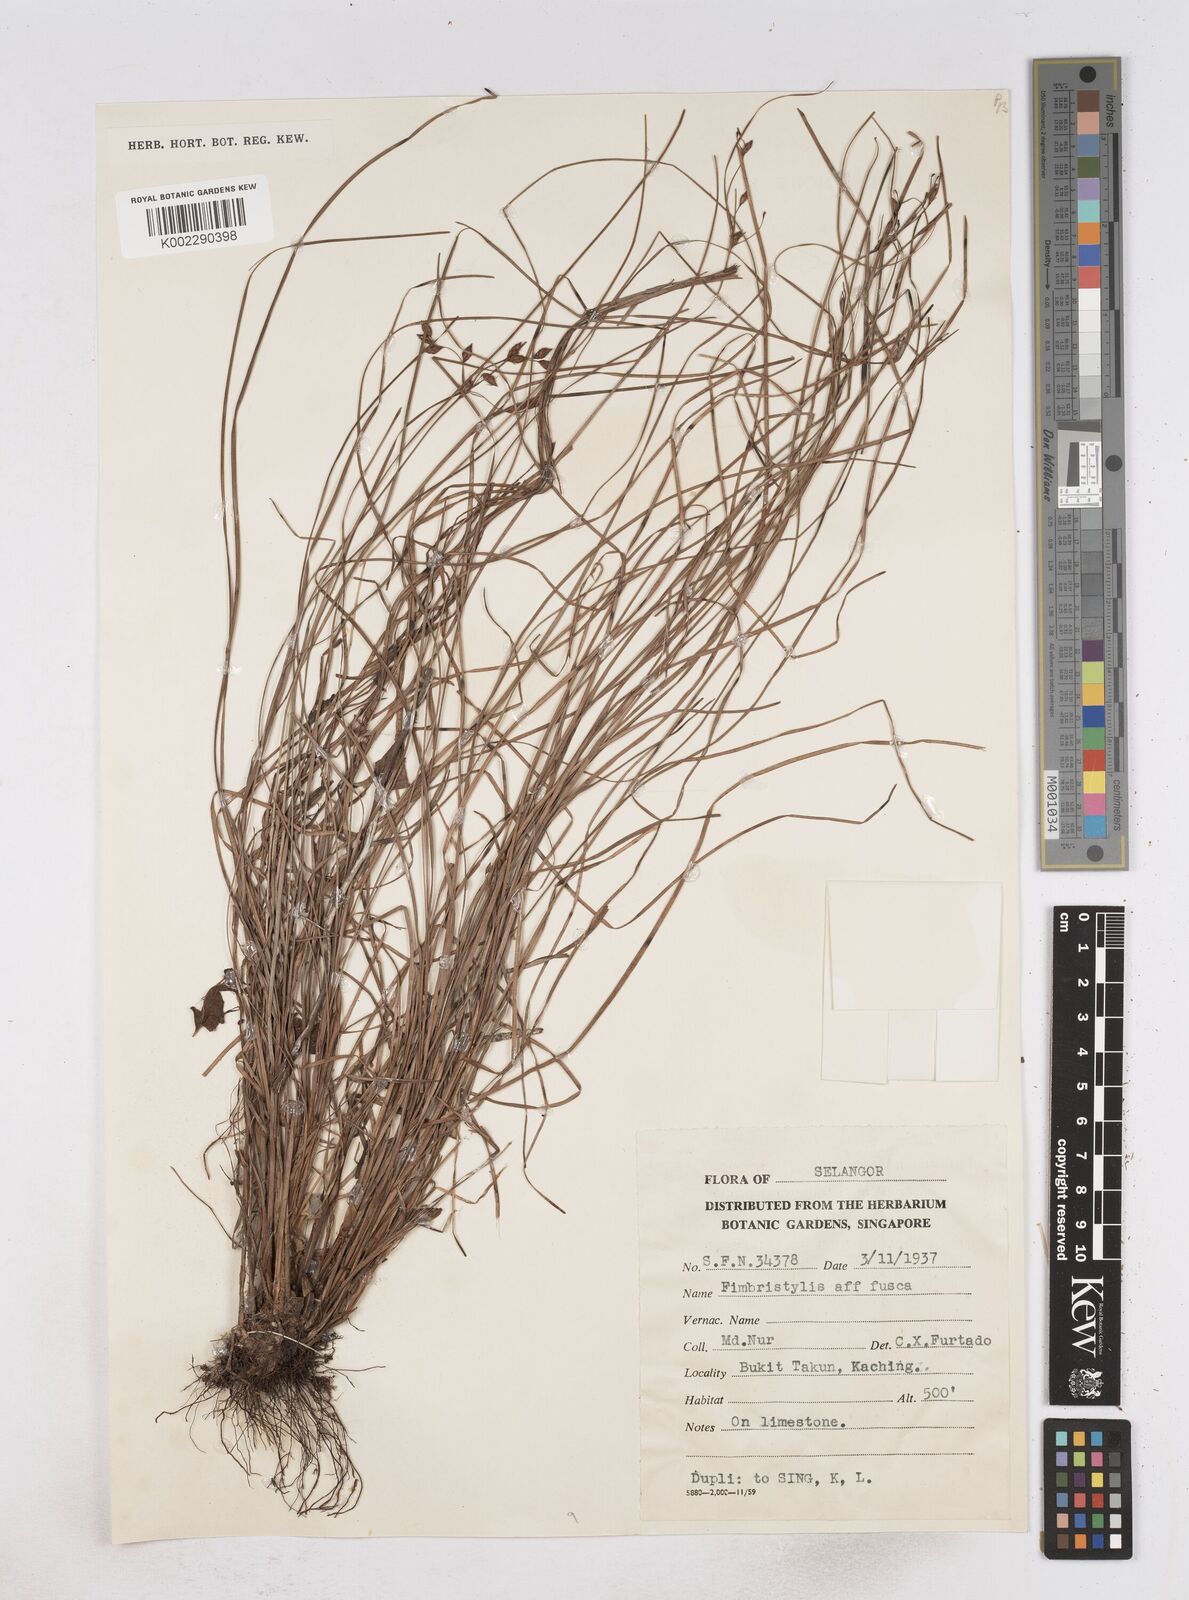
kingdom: Plantae
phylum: Tracheophyta
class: Liliopsida
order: Poales
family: Cyperaceae
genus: Fimbristylis
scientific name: Fimbristylis fusca
